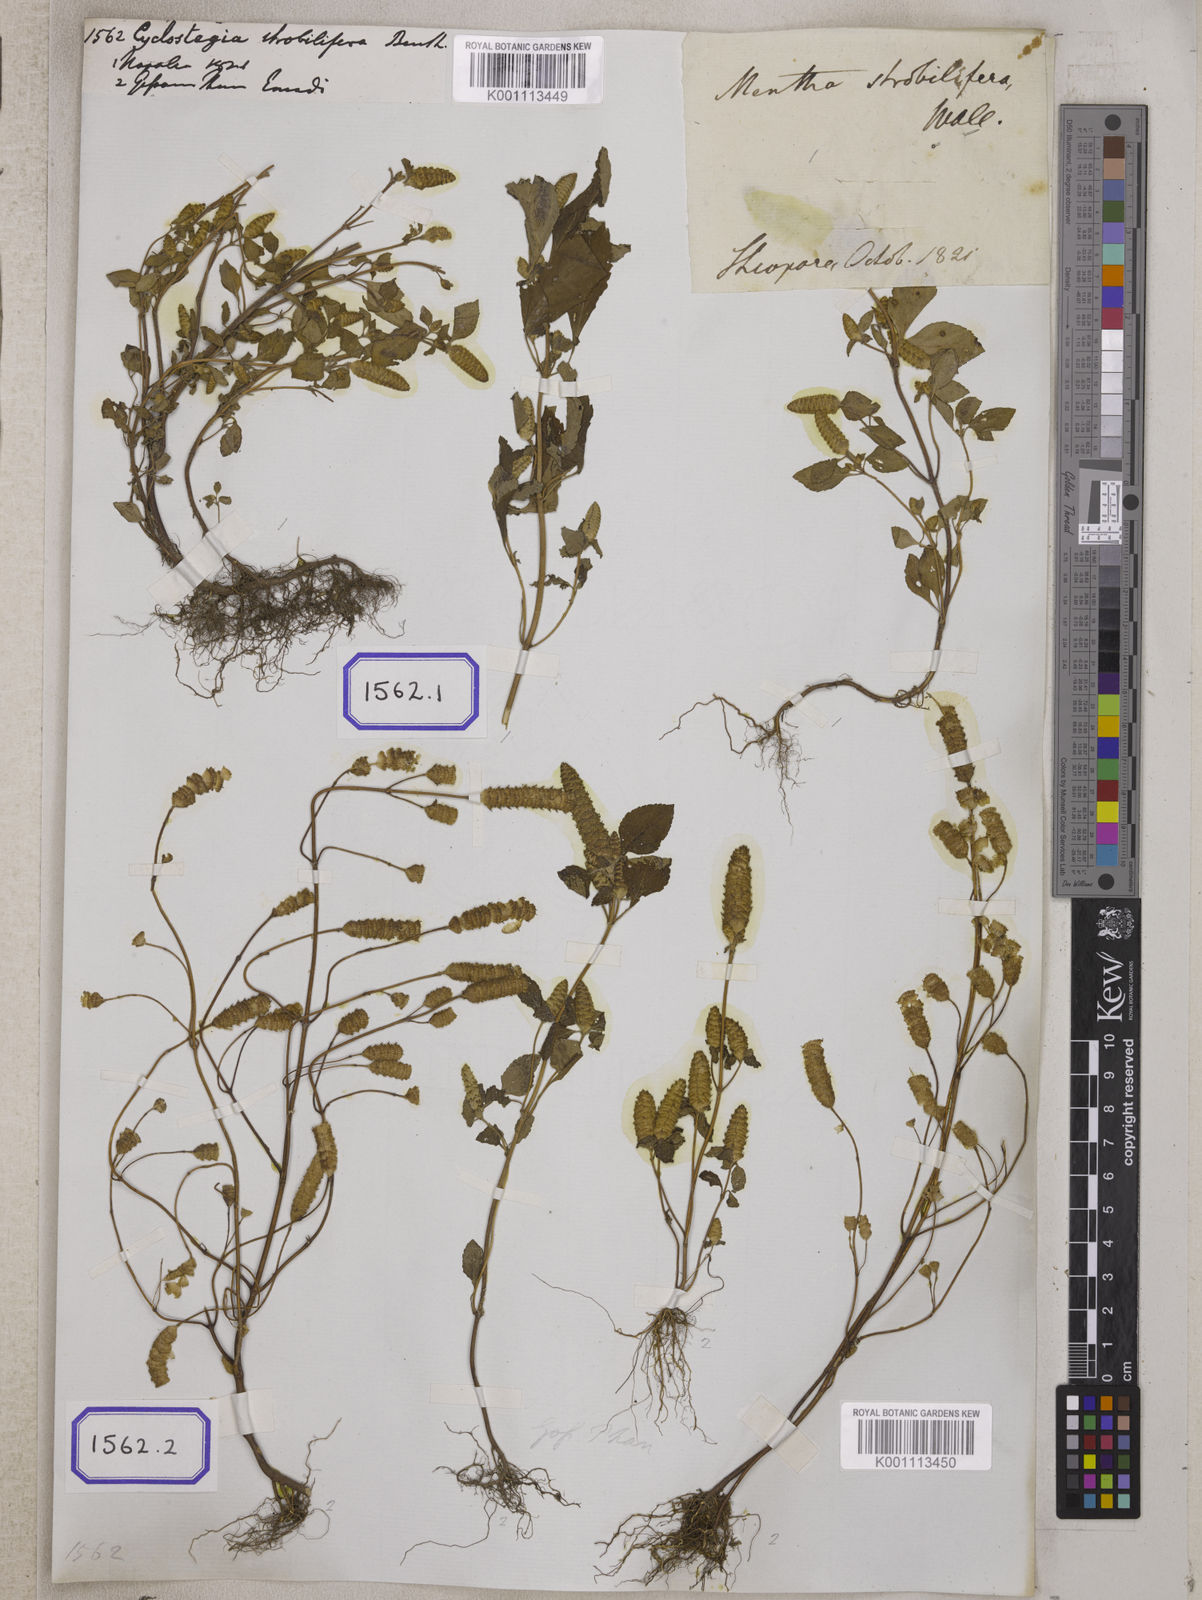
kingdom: Plantae
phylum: Tracheophyta
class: Magnoliopsida
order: Lamiales
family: Lamiaceae
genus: Elsholtzia
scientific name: Elsholtzia strobilifera
